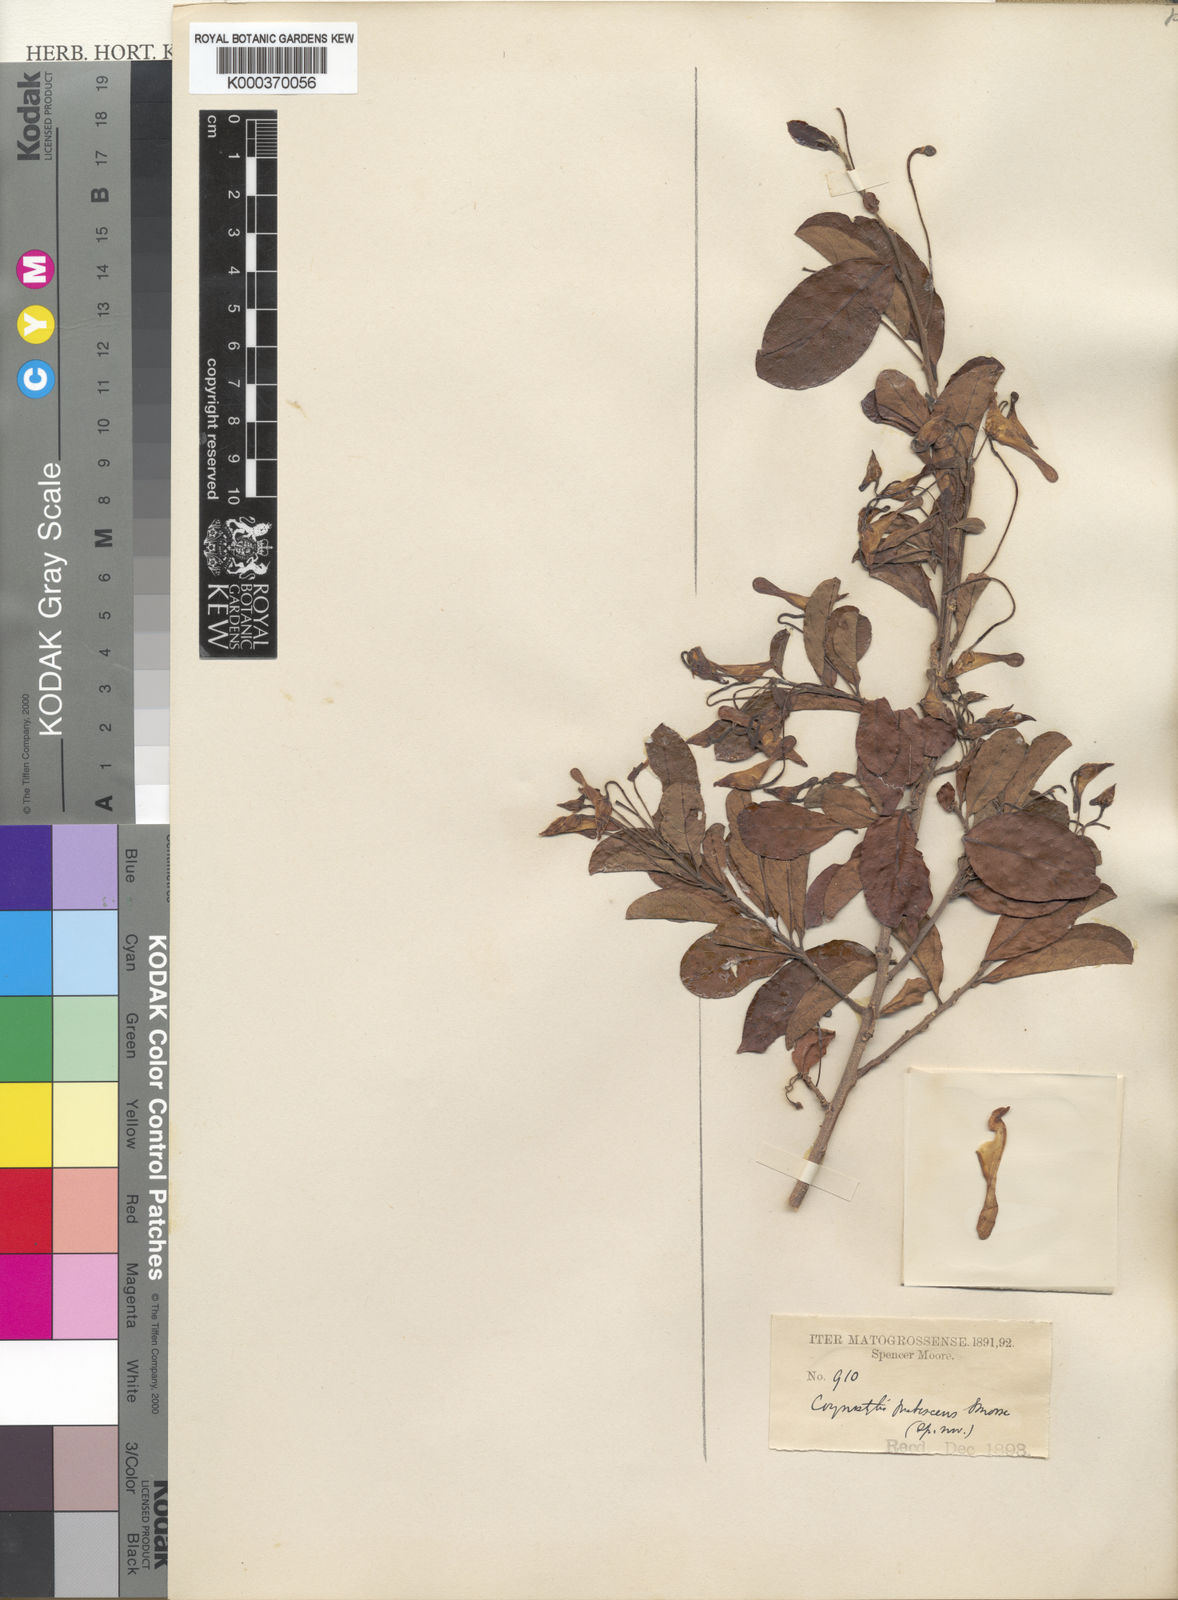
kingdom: Plantae
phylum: Tracheophyta
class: Magnoliopsida
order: Malpighiales
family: Violaceae
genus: Calyptrion
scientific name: Calyptrion pubescens
